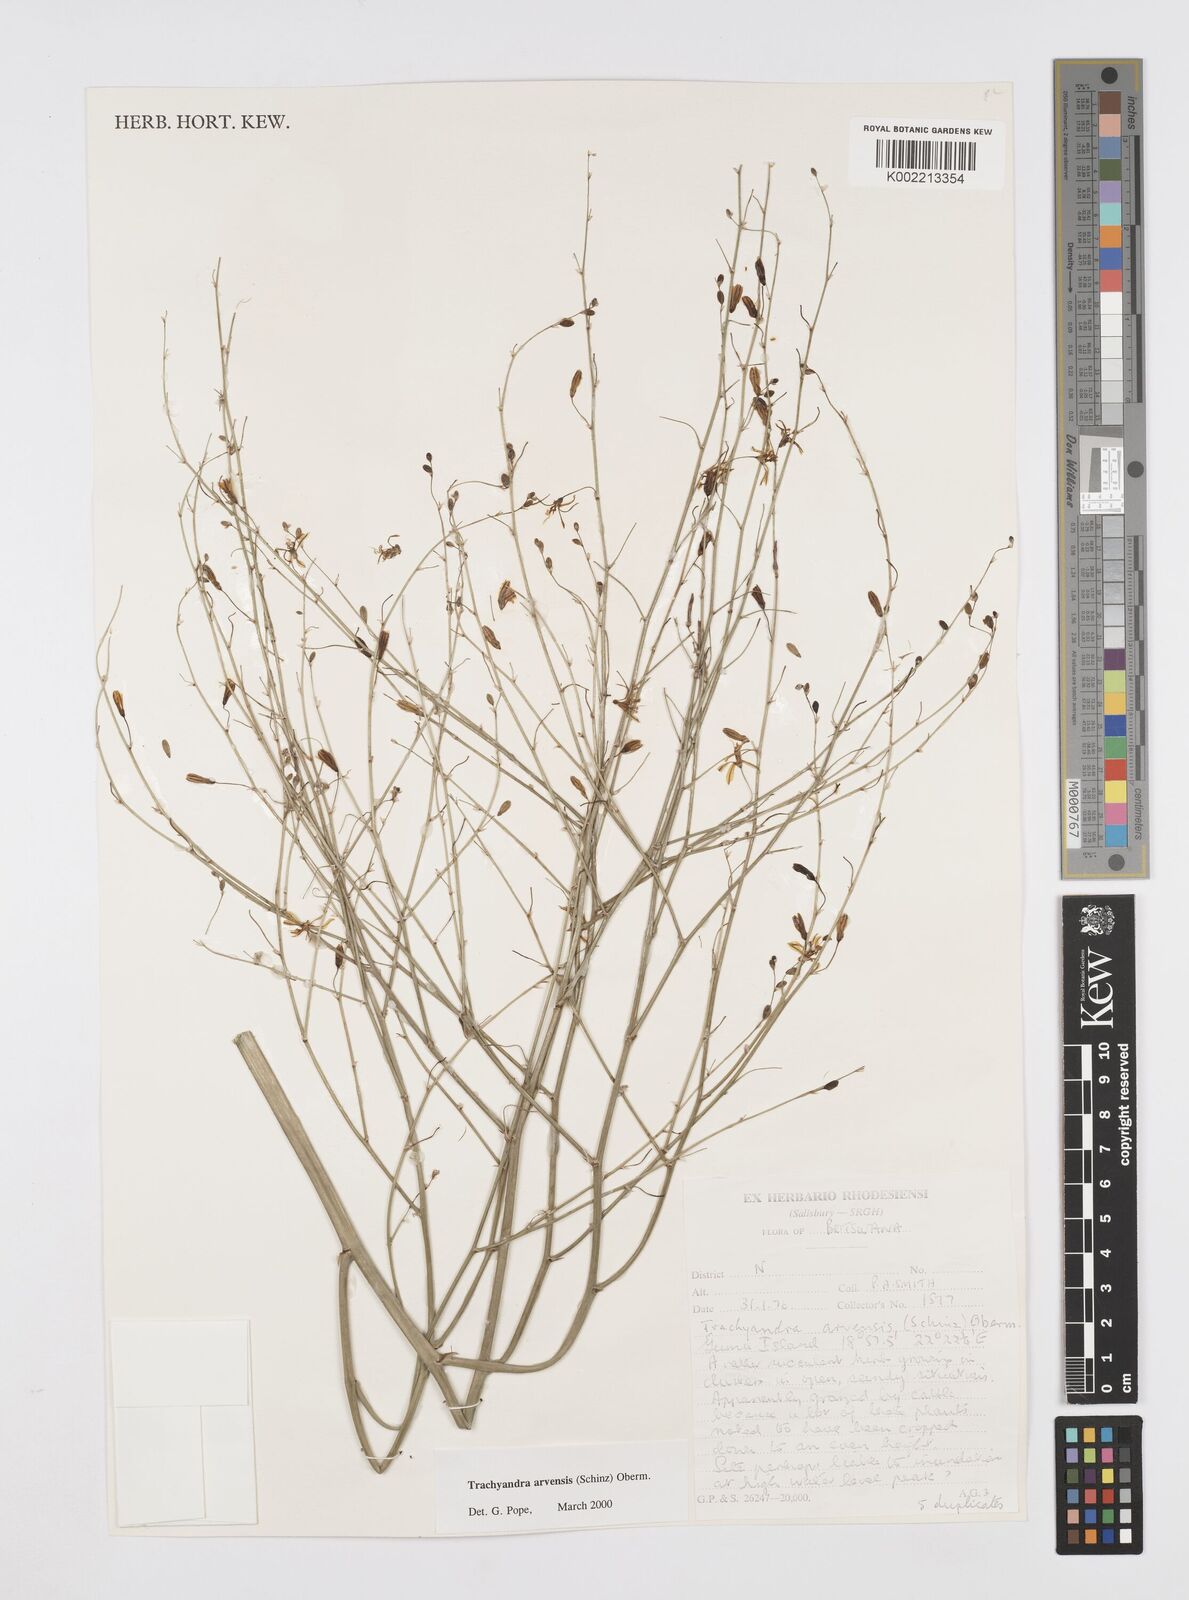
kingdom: Plantae
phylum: Tracheophyta
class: Liliopsida
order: Asparagales
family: Asphodelaceae
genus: Trachyandra
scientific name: Trachyandra arvensis
